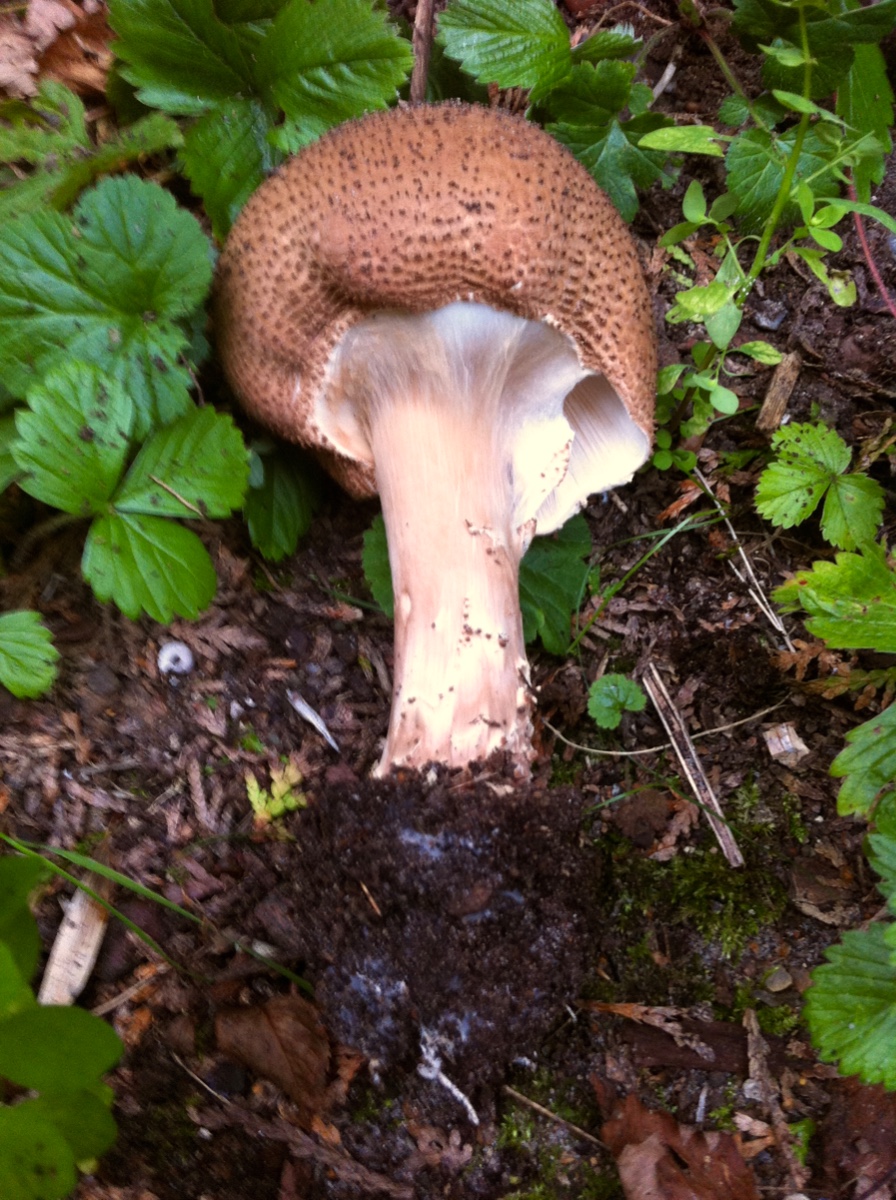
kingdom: Fungi
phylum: Basidiomycota
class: Agaricomycetes
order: Agaricales
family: Agaricaceae
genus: Echinoderma
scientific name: Echinoderma asperum
